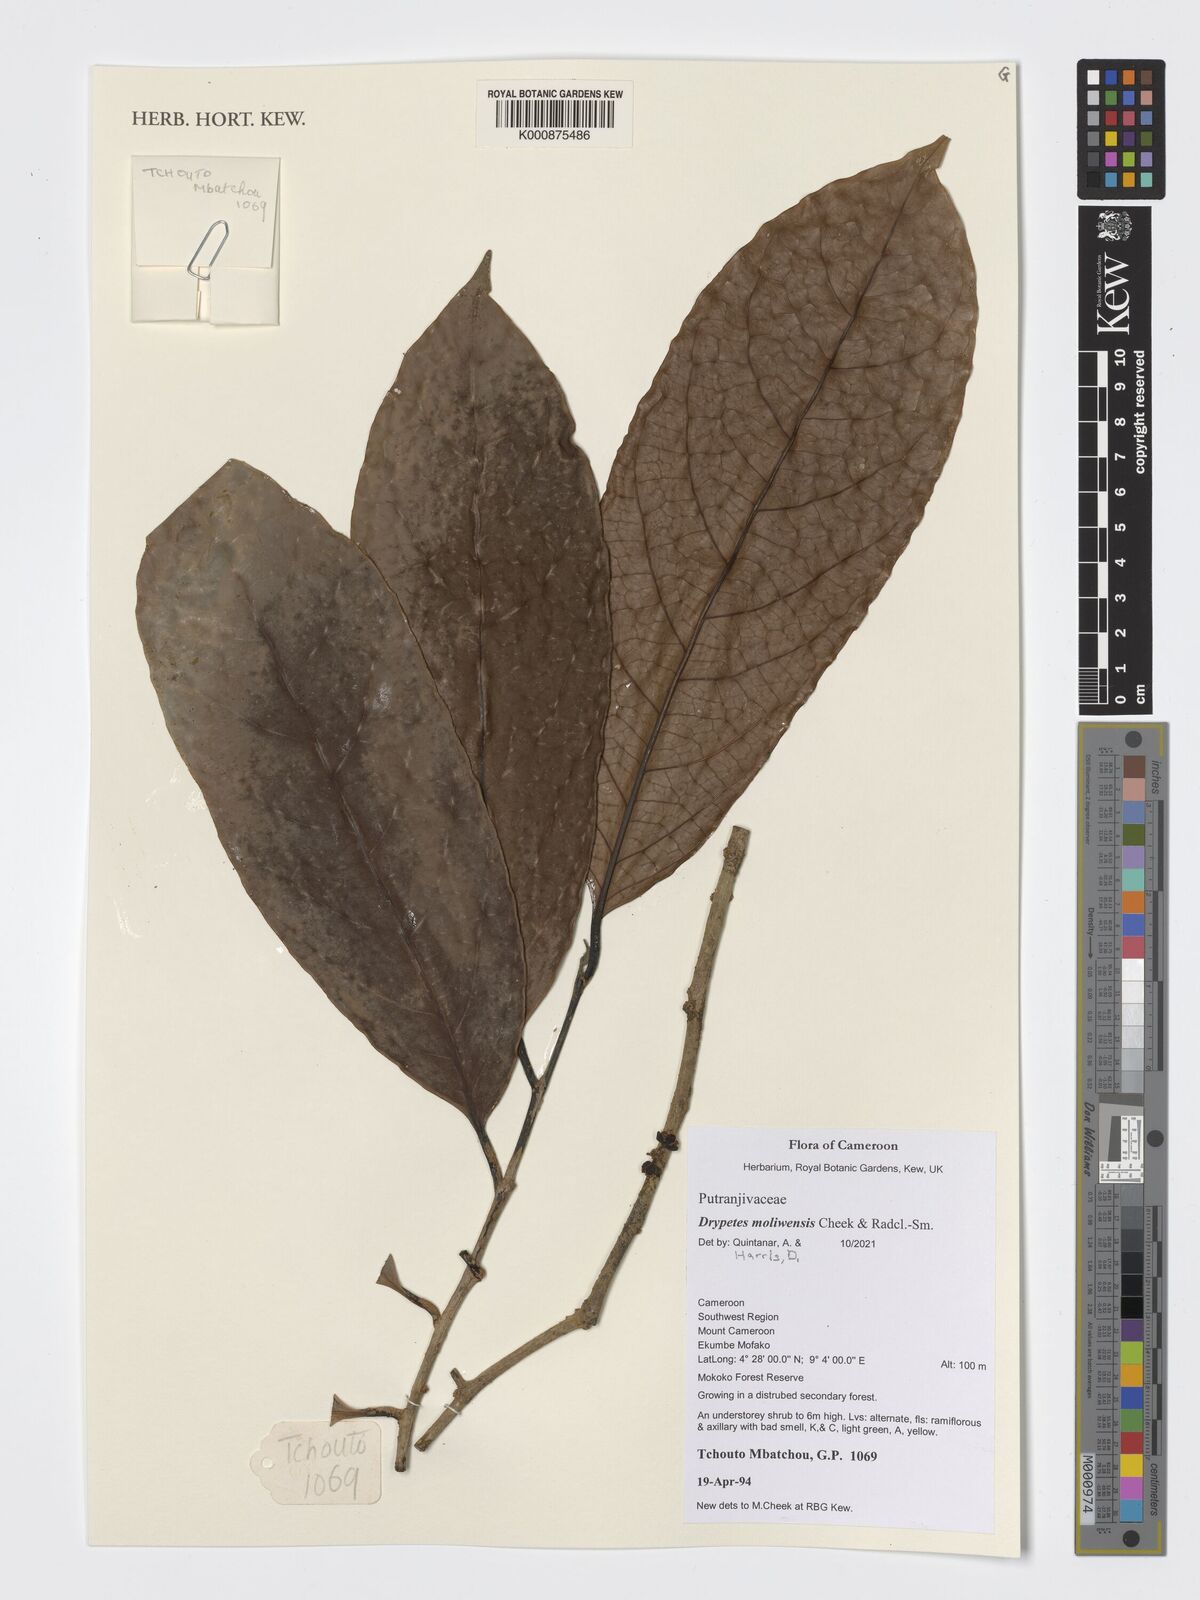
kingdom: Plantae
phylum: Tracheophyta
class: Magnoliopsida
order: Malpighiales
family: Putranjivaceae
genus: Drypetes
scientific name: Drypetes moliwensis
